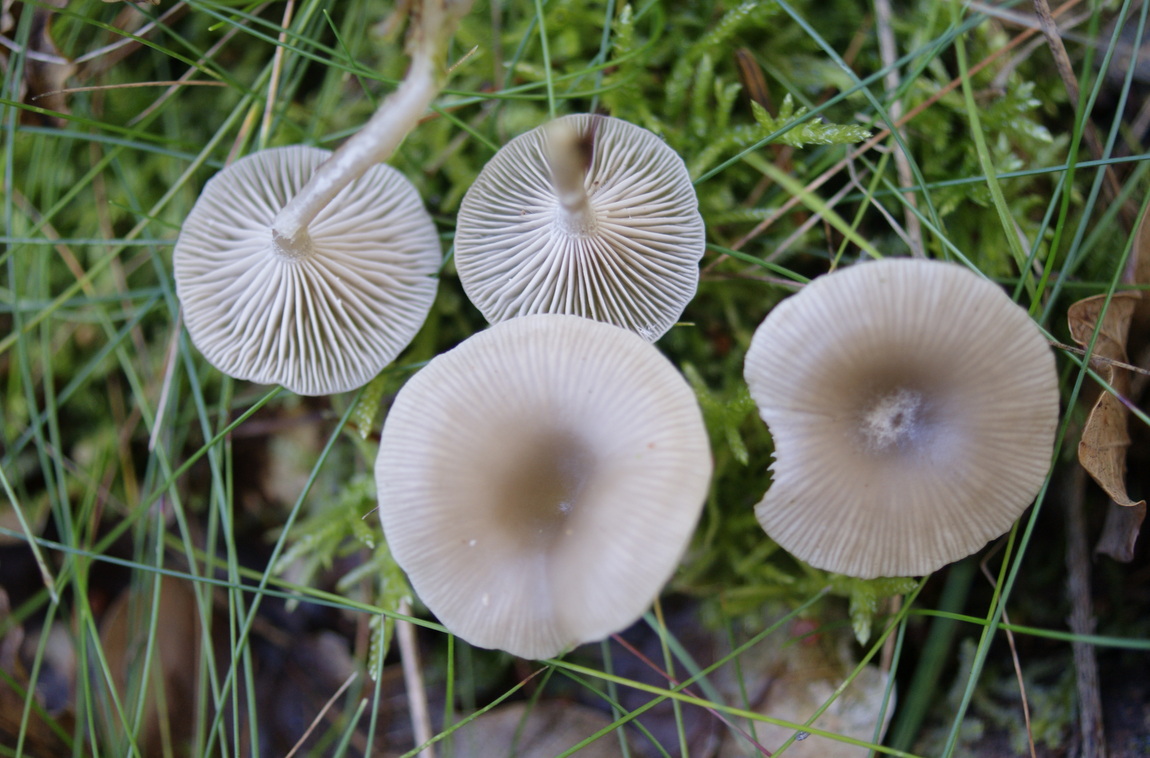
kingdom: Fungi
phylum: Basidiomycota
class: Agaricomycetes
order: Agaricales
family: Tricholomataceae
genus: Clitocybe
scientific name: Clitocybe vibecina
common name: randstribet tragthat
